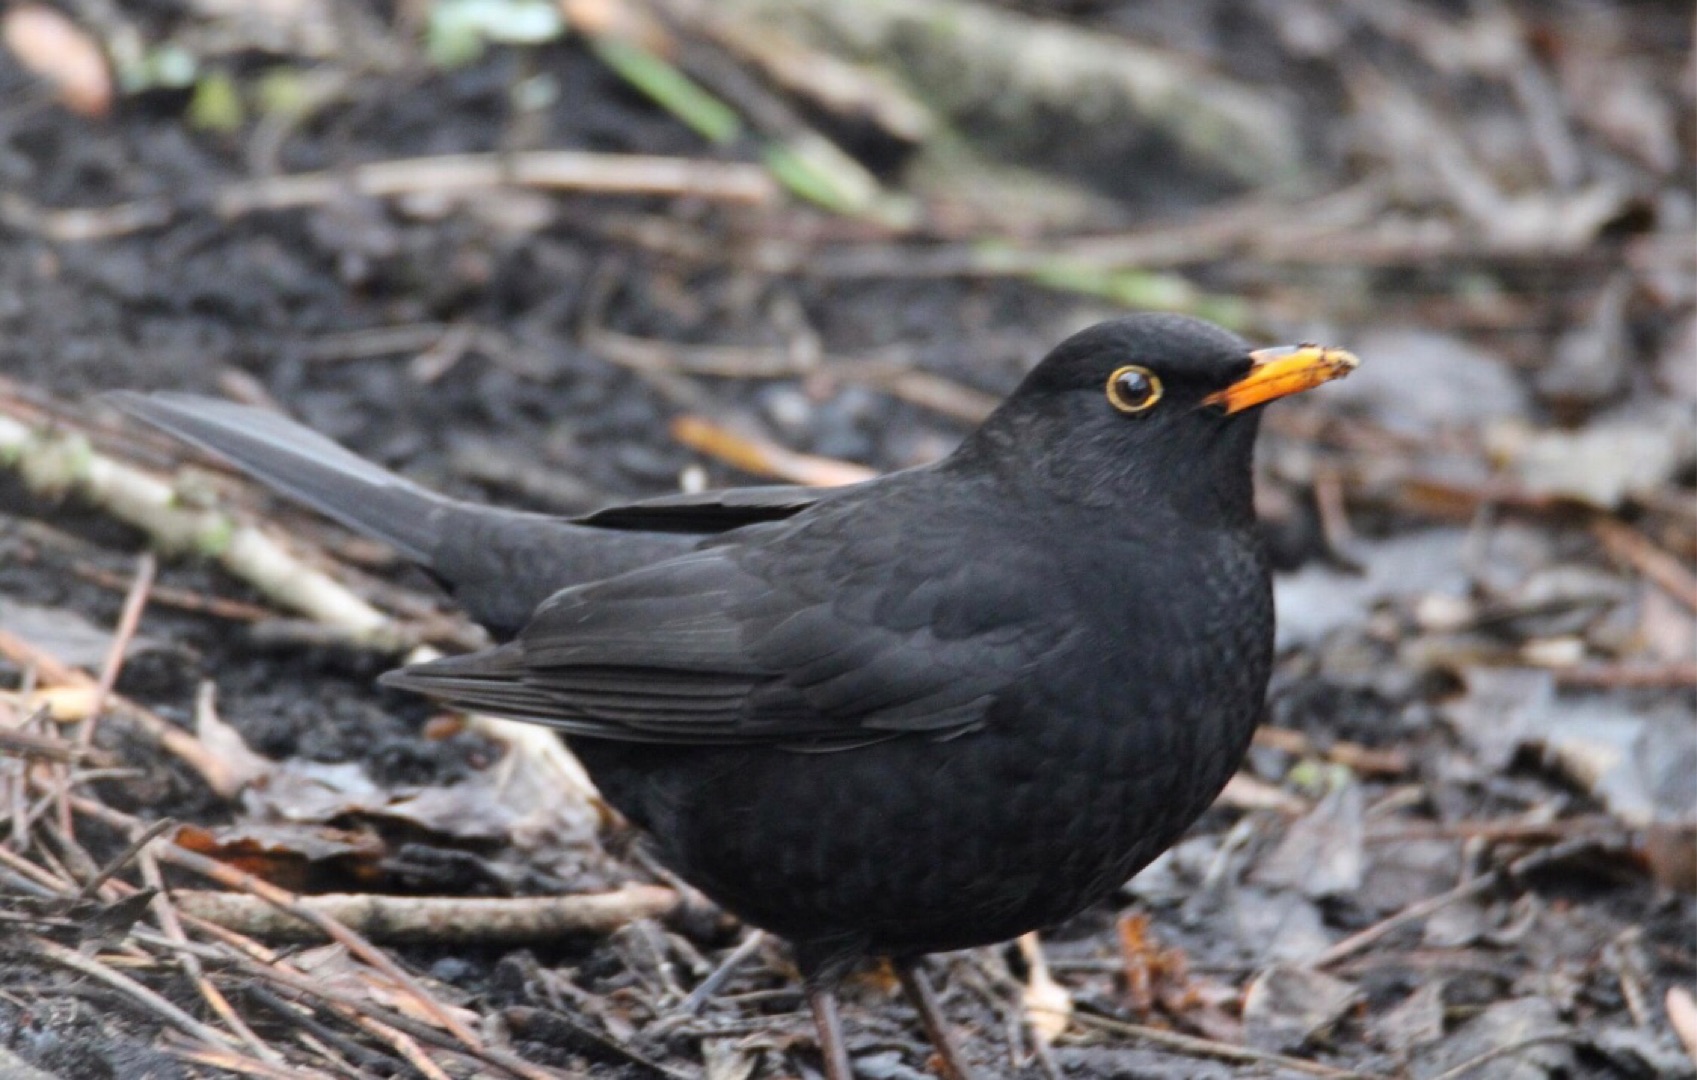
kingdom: Animalia
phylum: Chordata
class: Aves
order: Passeriformes
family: Turdidae
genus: Turdus
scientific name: Turdus merula
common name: Solsort
